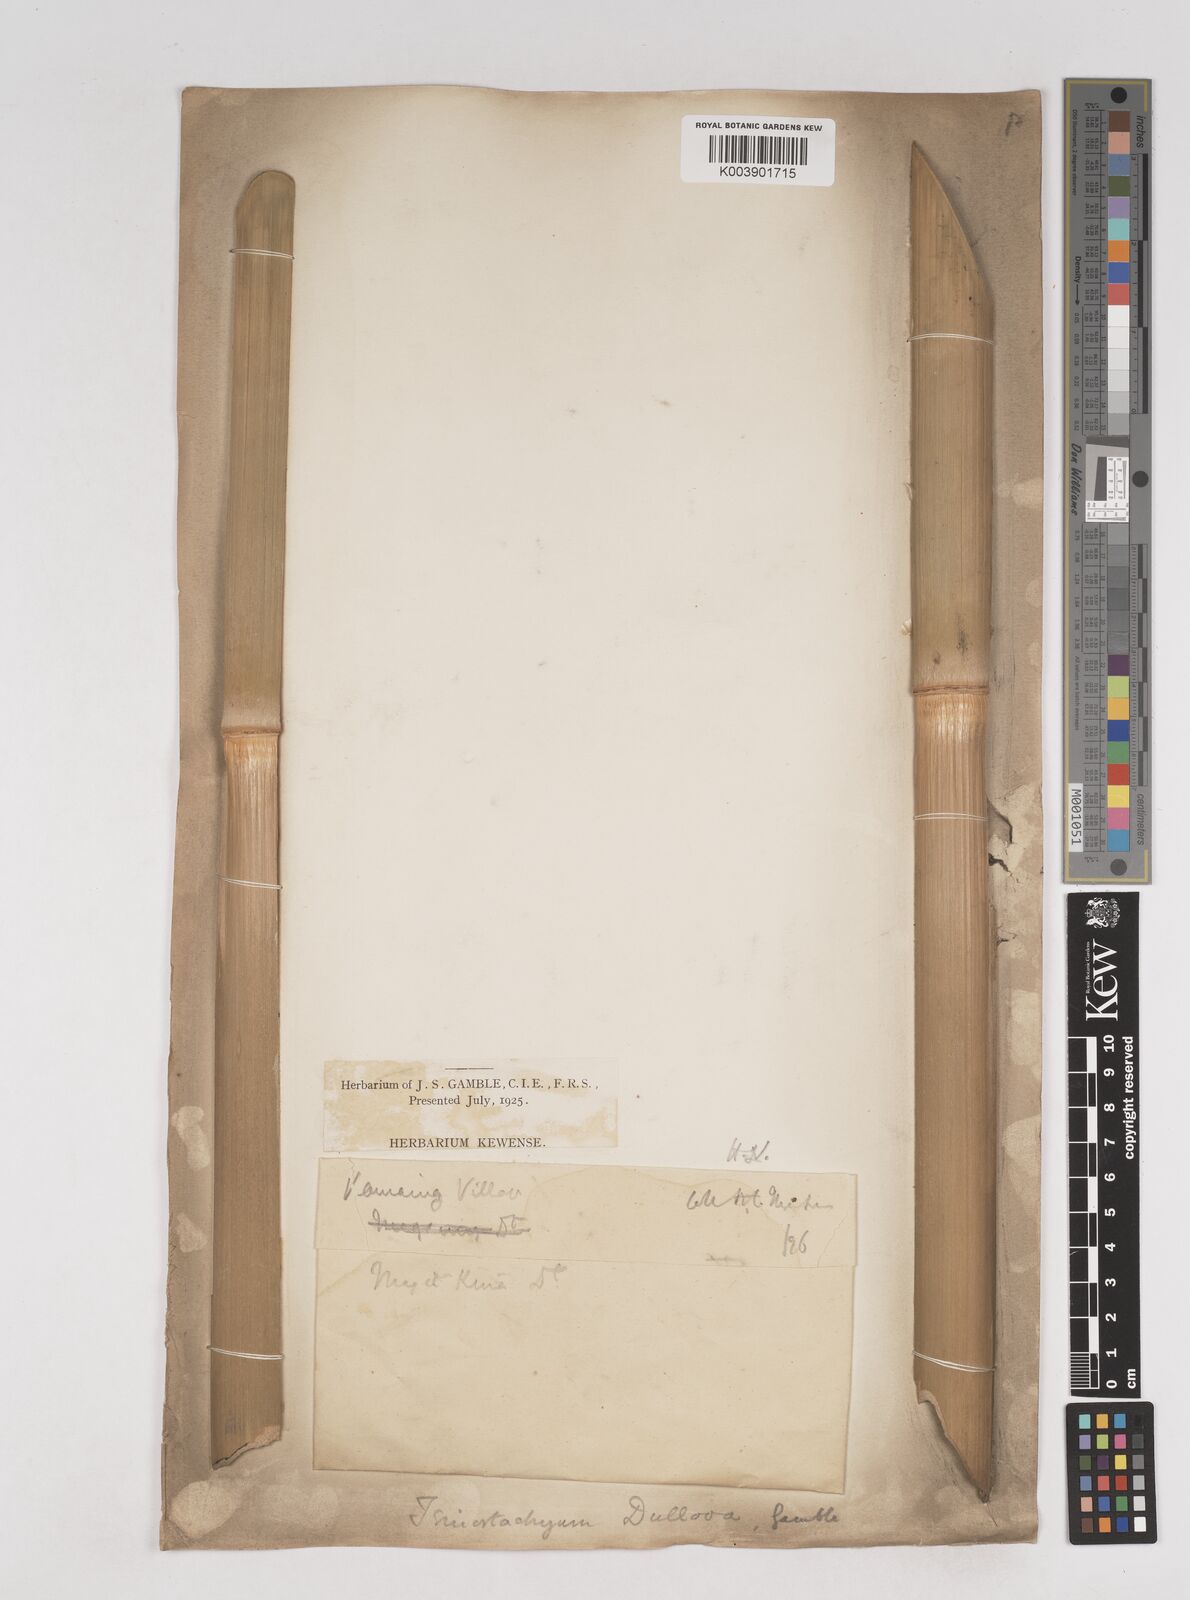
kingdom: Plantae
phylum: Tracheophyta
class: Liliopsida
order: Poales
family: Poaceae
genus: Schizostachyum
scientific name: Schizostachyum dullooa
